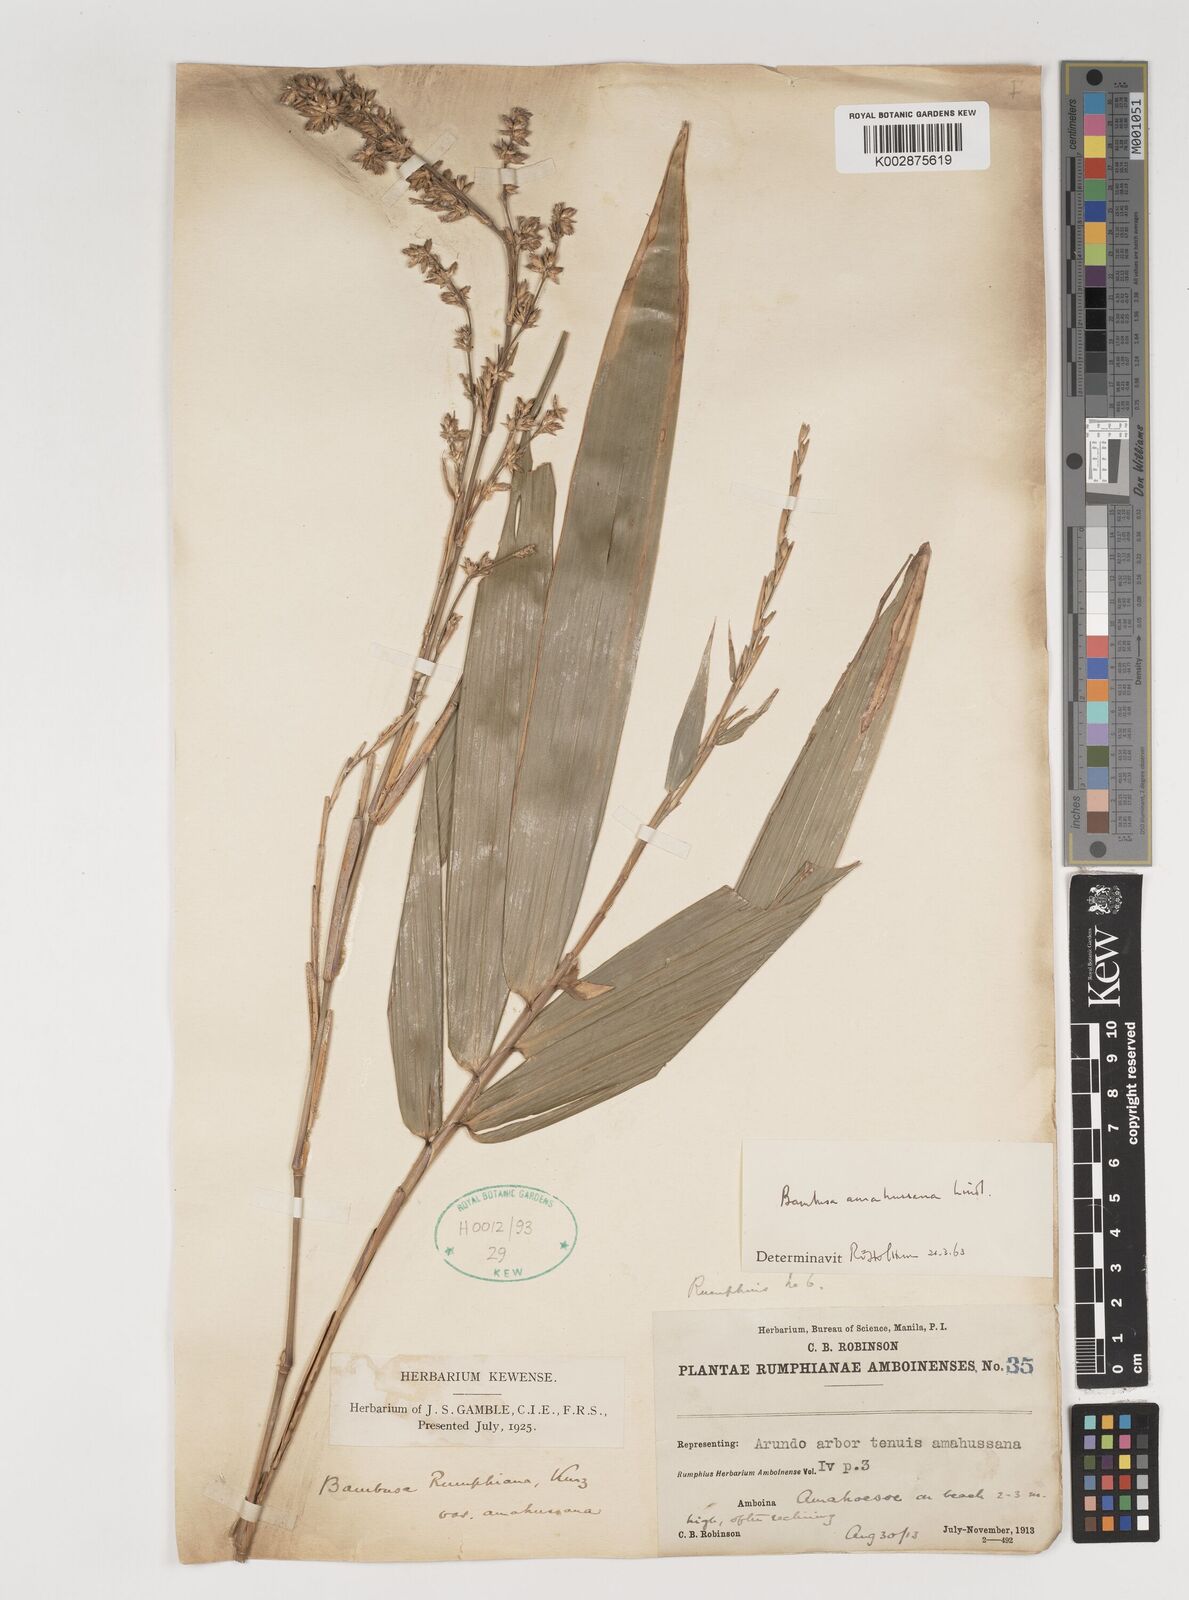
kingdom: Plantae
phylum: Tracheophyta
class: Liliopsida
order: Poales
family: Poaceae
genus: Neololeba
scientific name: Neololeba amahussana
